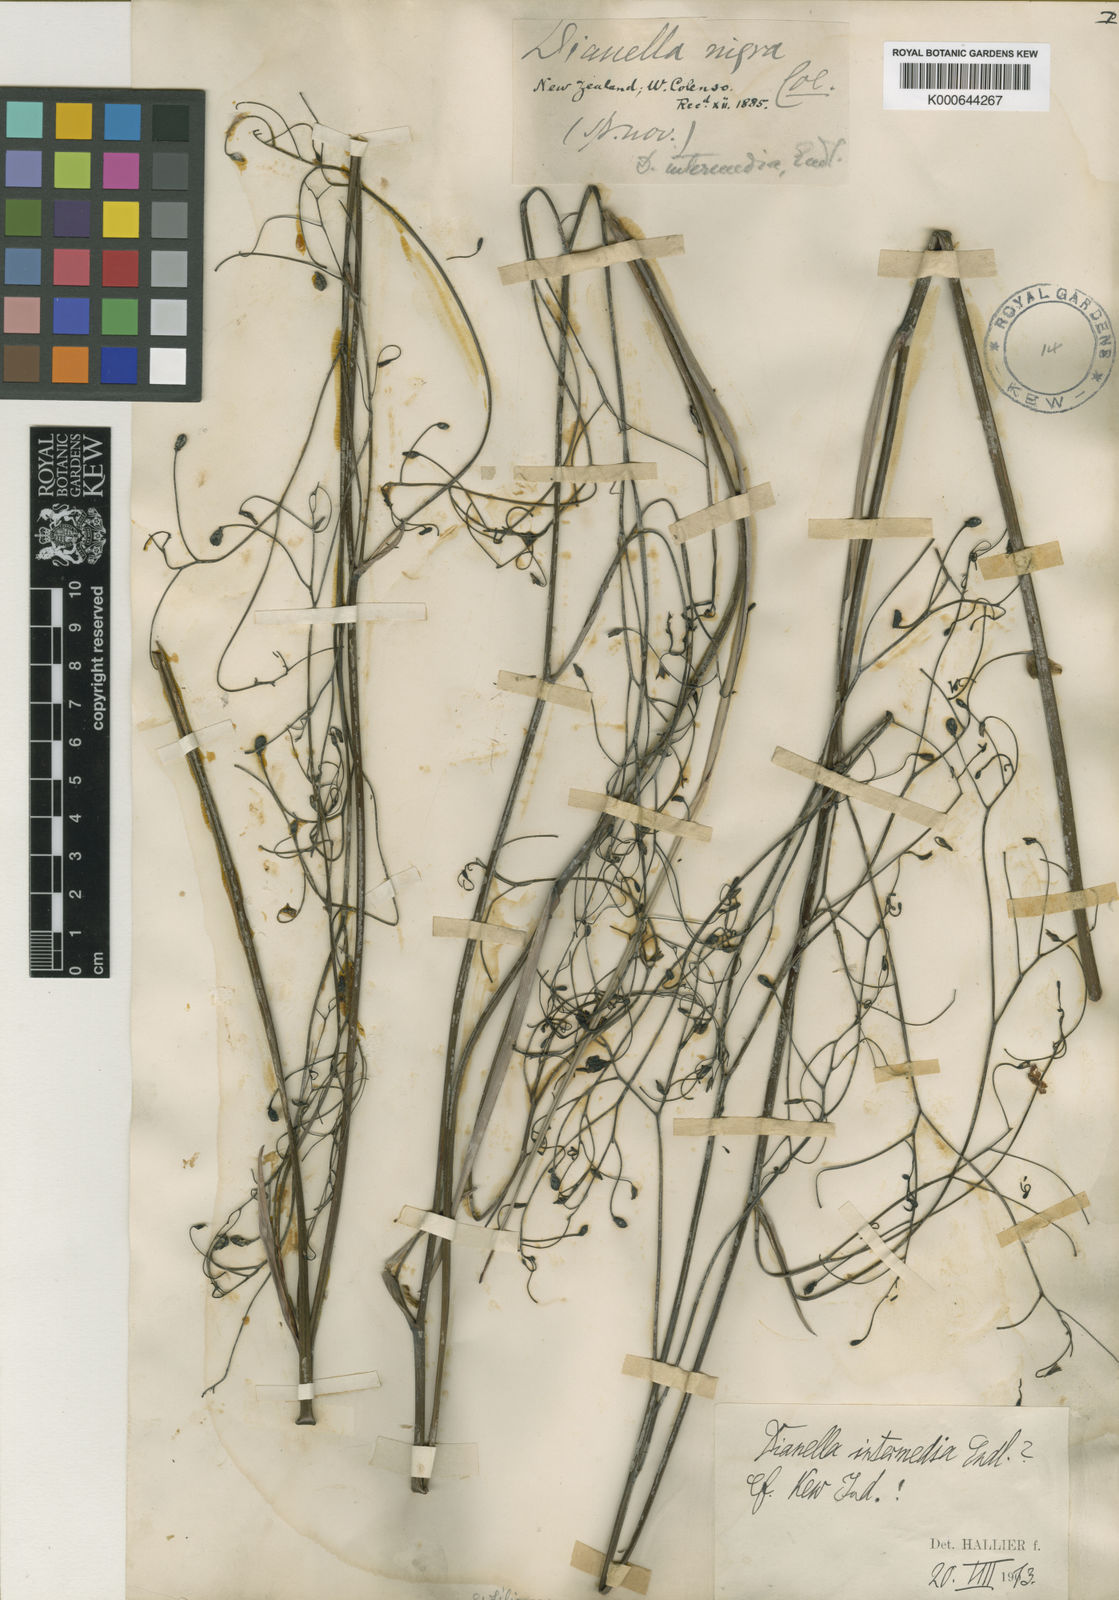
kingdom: Plantae
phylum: Tracheophyta
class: Liliopsida
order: Asparagales
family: Asphodelaceae
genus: Dianella
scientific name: Dianella nigra
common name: New zealand-blueberry
